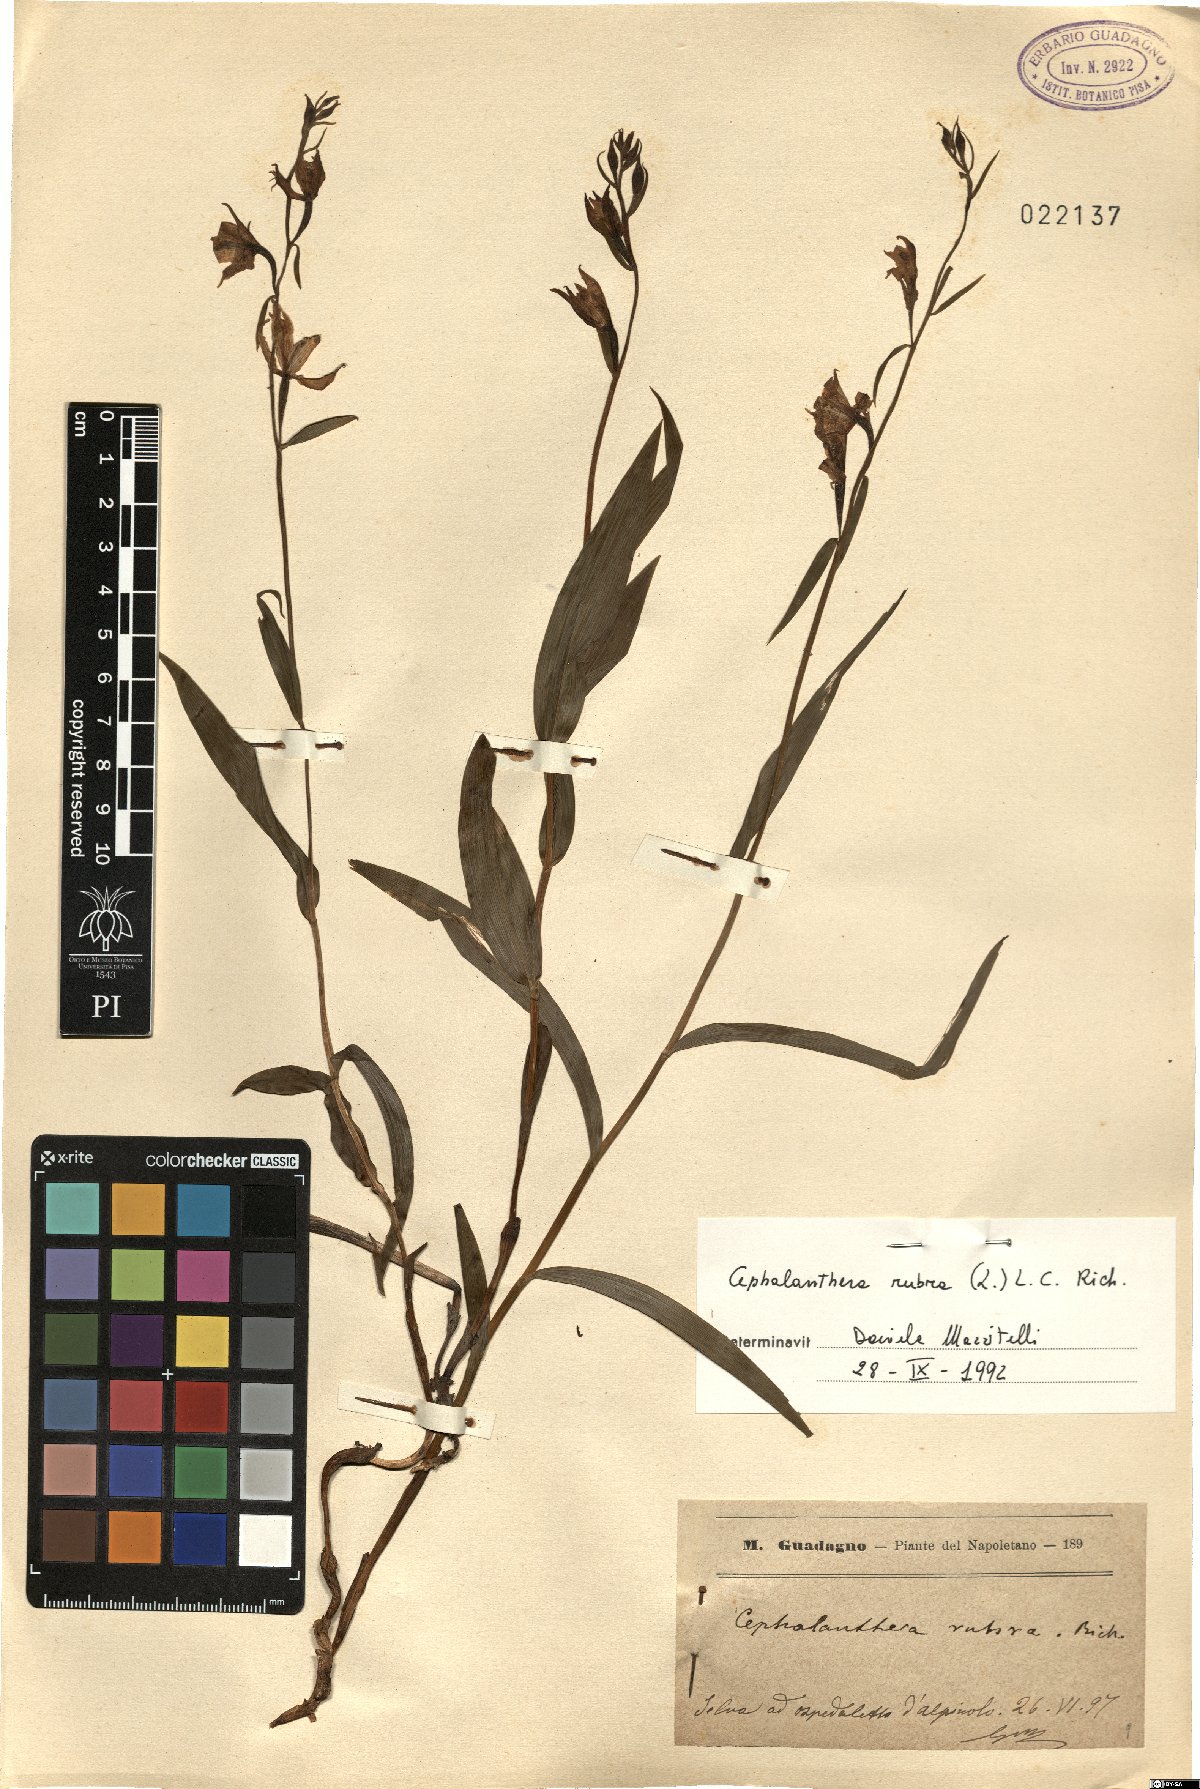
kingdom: Plantae
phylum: Tracheophyta
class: Liliopsida
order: Asparagales
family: Orchidaceae
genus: Cephalanthera
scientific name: Cephalanthera rubra
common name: Red helleborine
